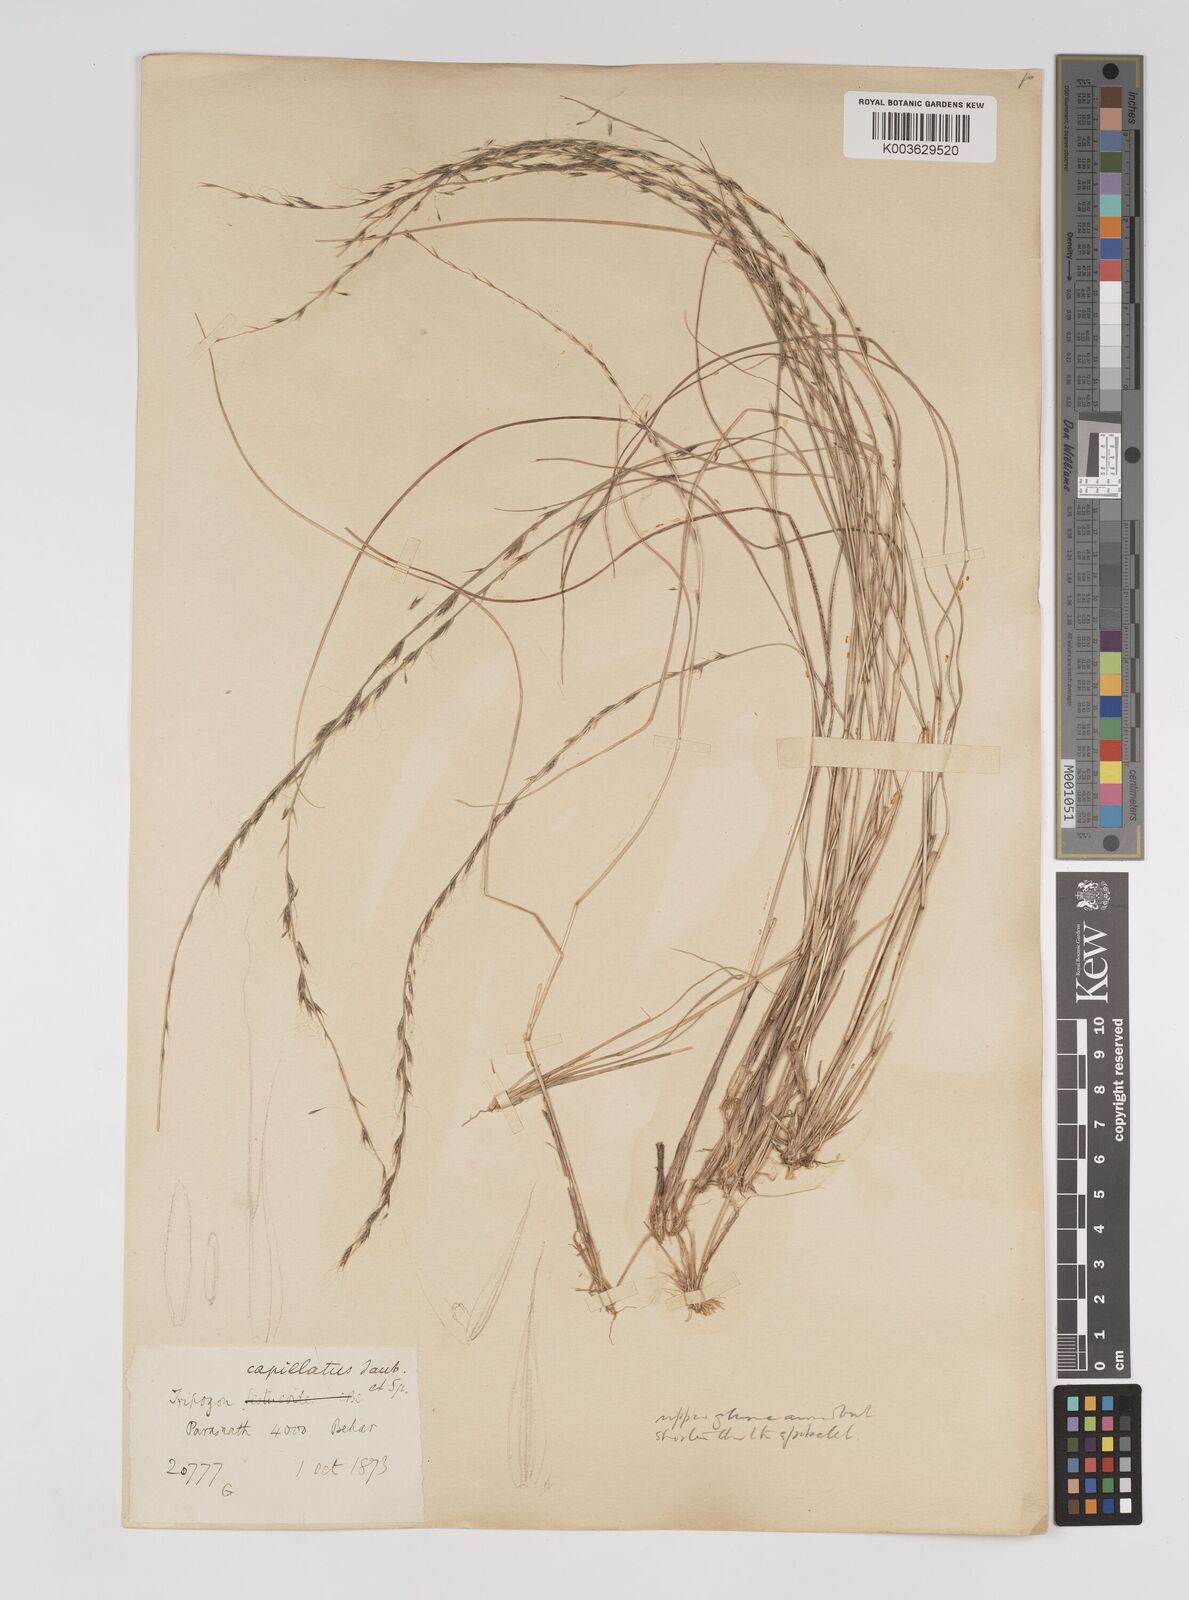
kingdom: Plantae
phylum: Tracheophyta
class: Liliopsida
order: Poales
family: Poaceae
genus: Tripogon
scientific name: Tripogon capillatus
